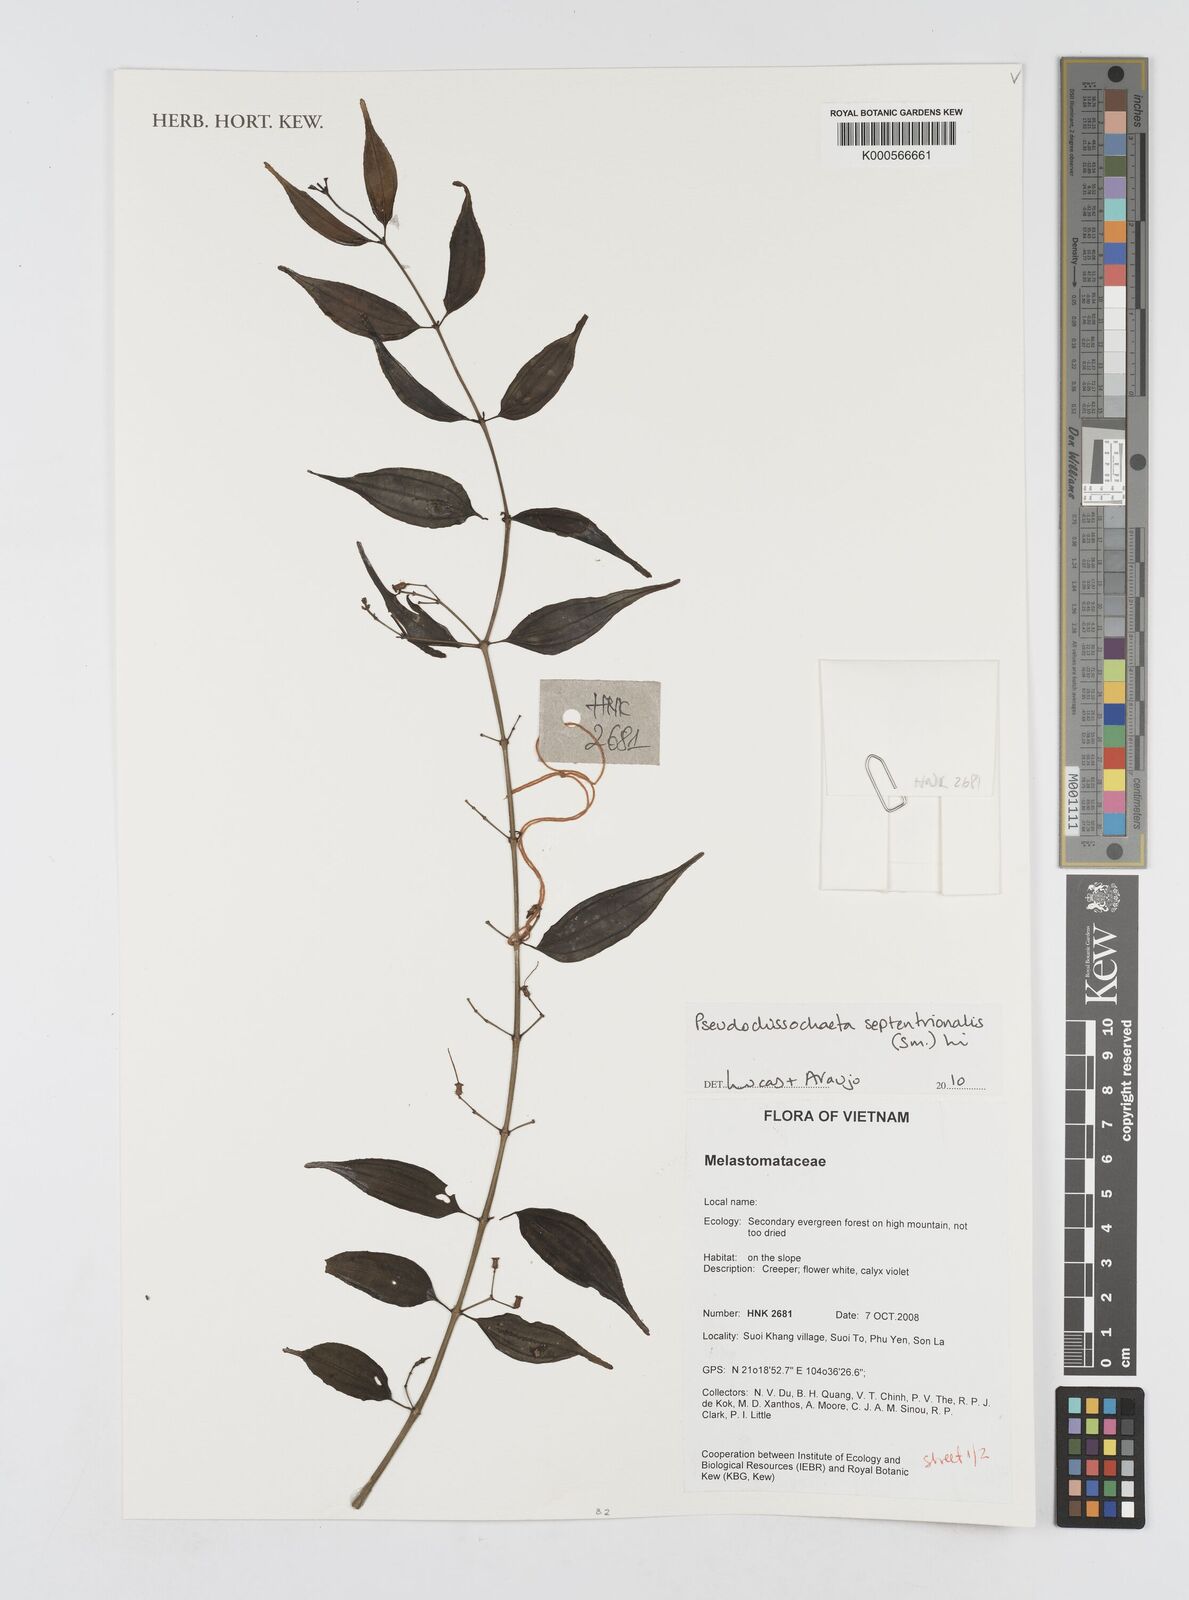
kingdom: Plantae
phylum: Tracheophyta
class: Magnoliopsida
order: Myrtales
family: Melastomataceae
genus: Pseudodissochaeta
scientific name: Pseudodissochaeta
